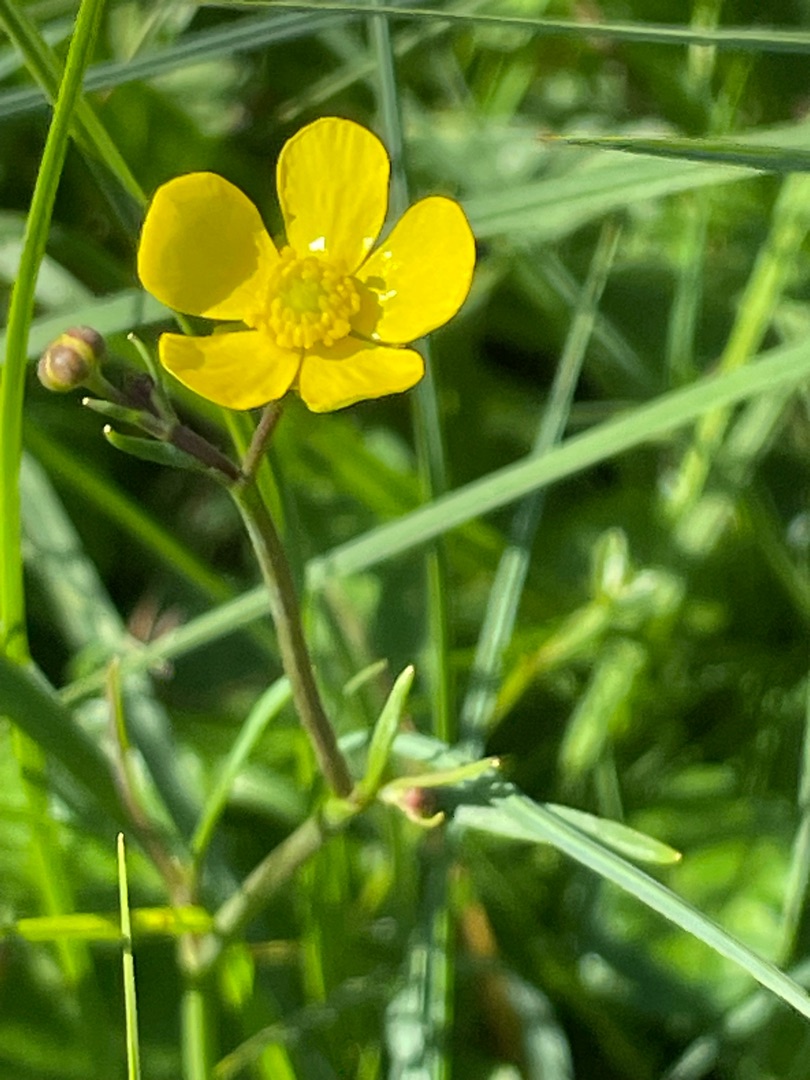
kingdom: Plantae
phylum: Tracheophyta
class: Magnoliopsida
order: Ranunculales
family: Ranunculaceae
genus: Ranunculus
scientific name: Ranunculus flammula
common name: Kær-ranunkel
